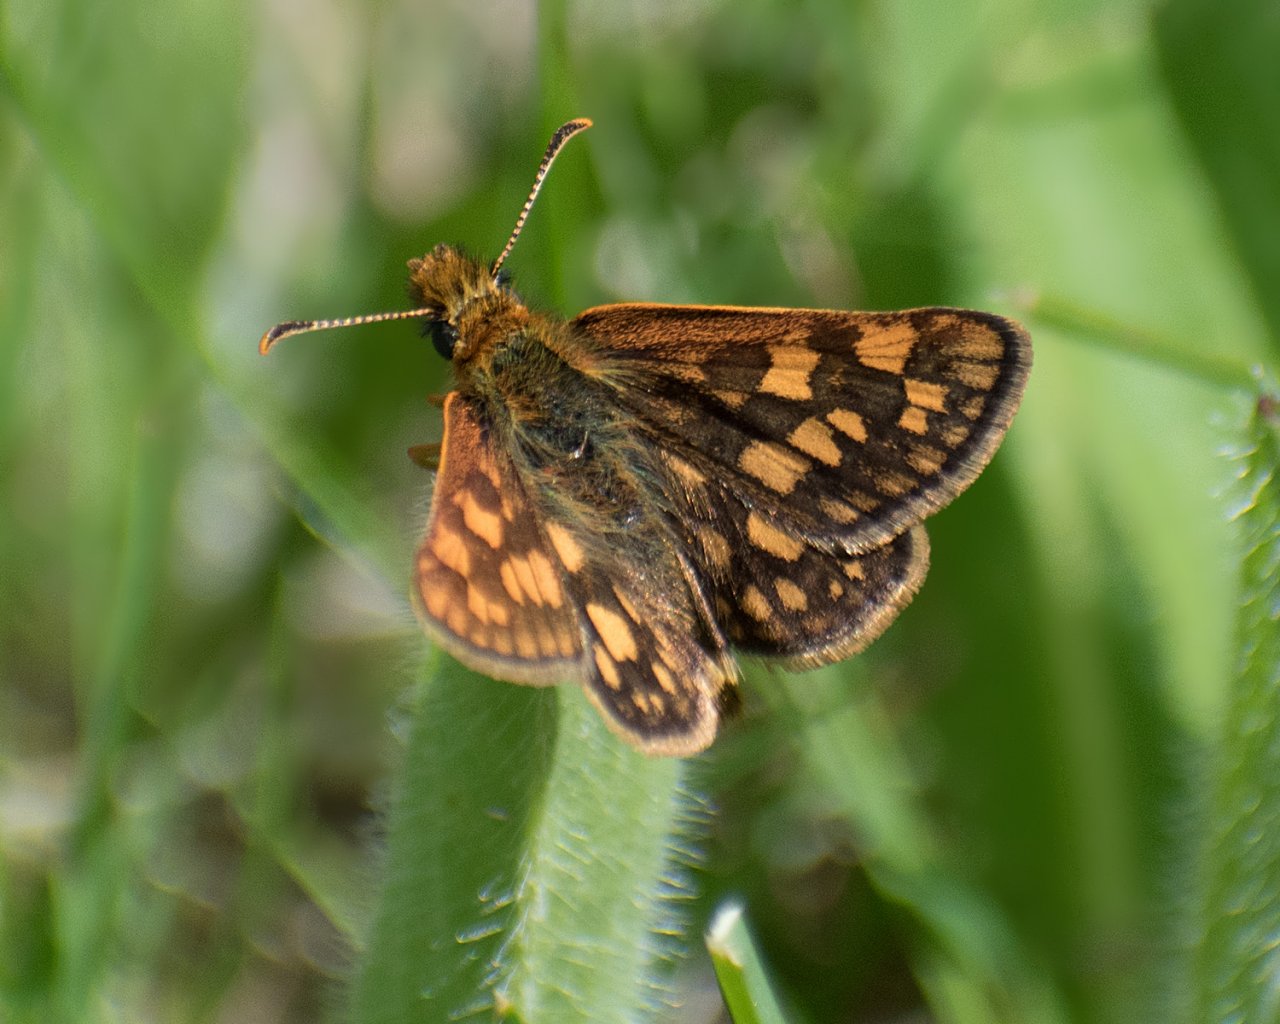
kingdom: Animalia
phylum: Arthropoda
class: Insecta
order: Lepidoptera
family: Hesperiidae
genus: Carterocephalus
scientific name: Carterocephalus palaemon
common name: Chequered Skipper
